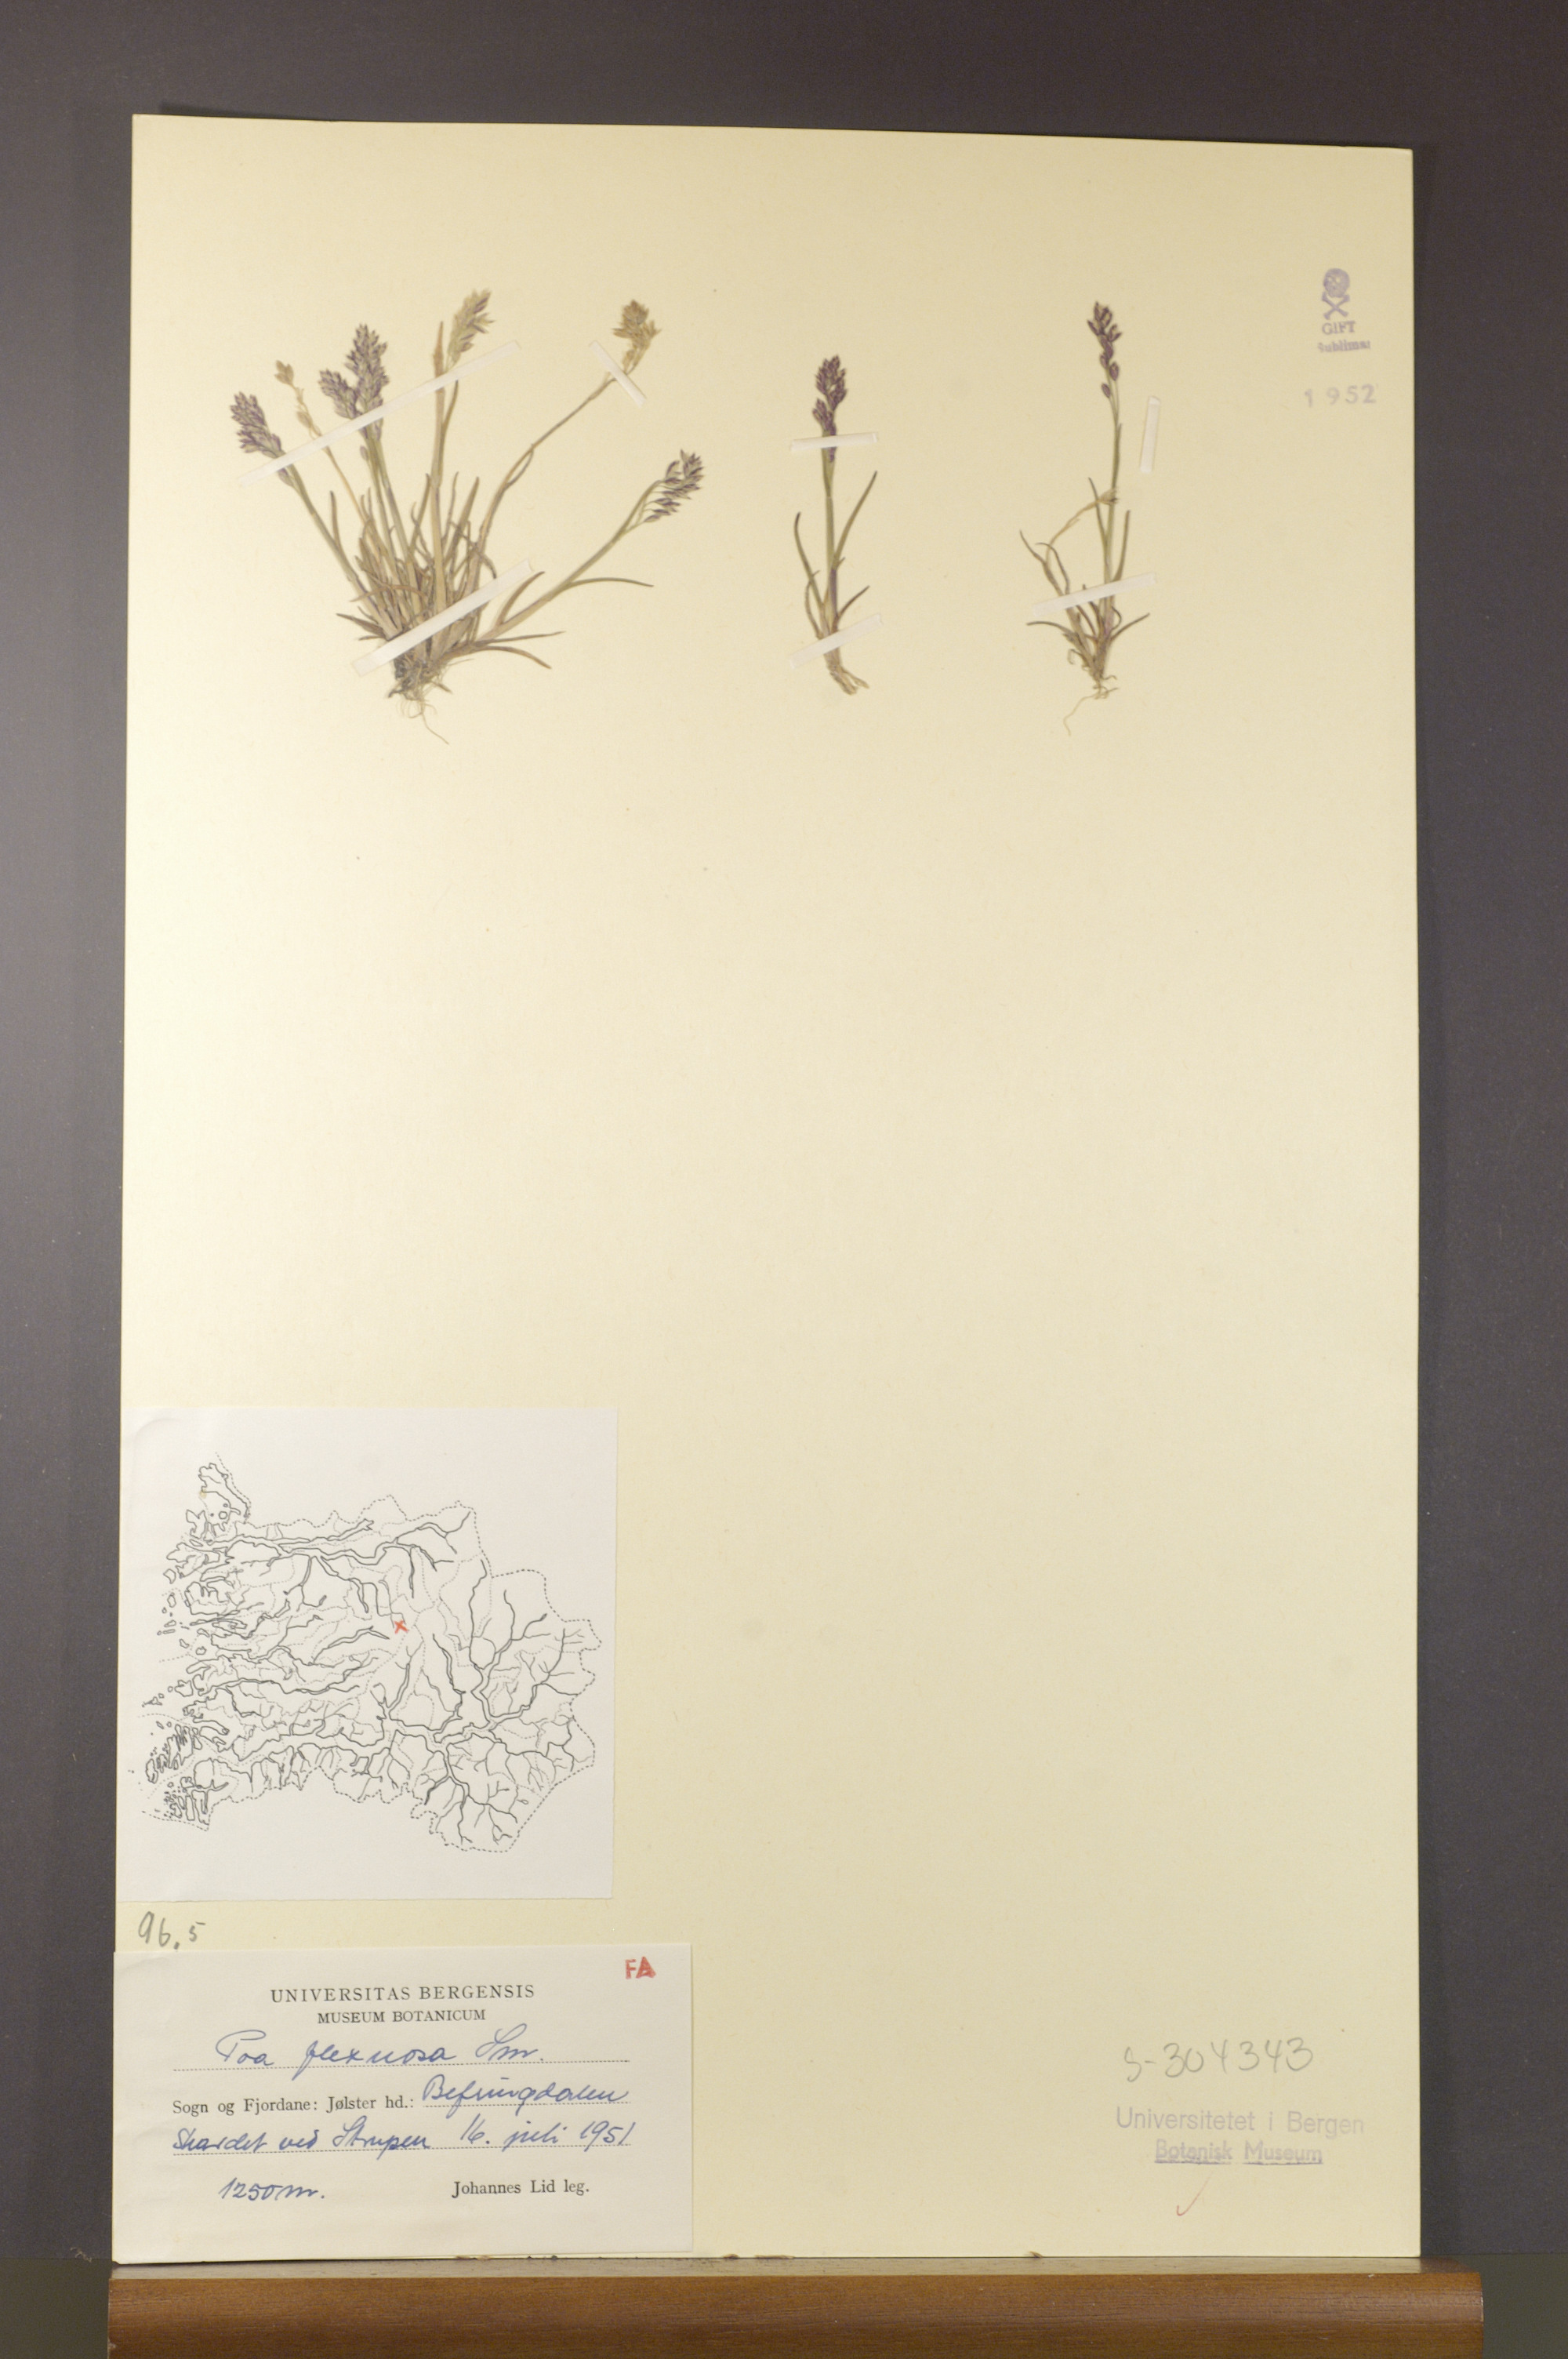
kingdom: Plantae
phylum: Tracheophyta
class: Liliopsida
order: Poales
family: Poaceae
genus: Poa
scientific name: Poa flexuosa
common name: Wavy meadow-grass
